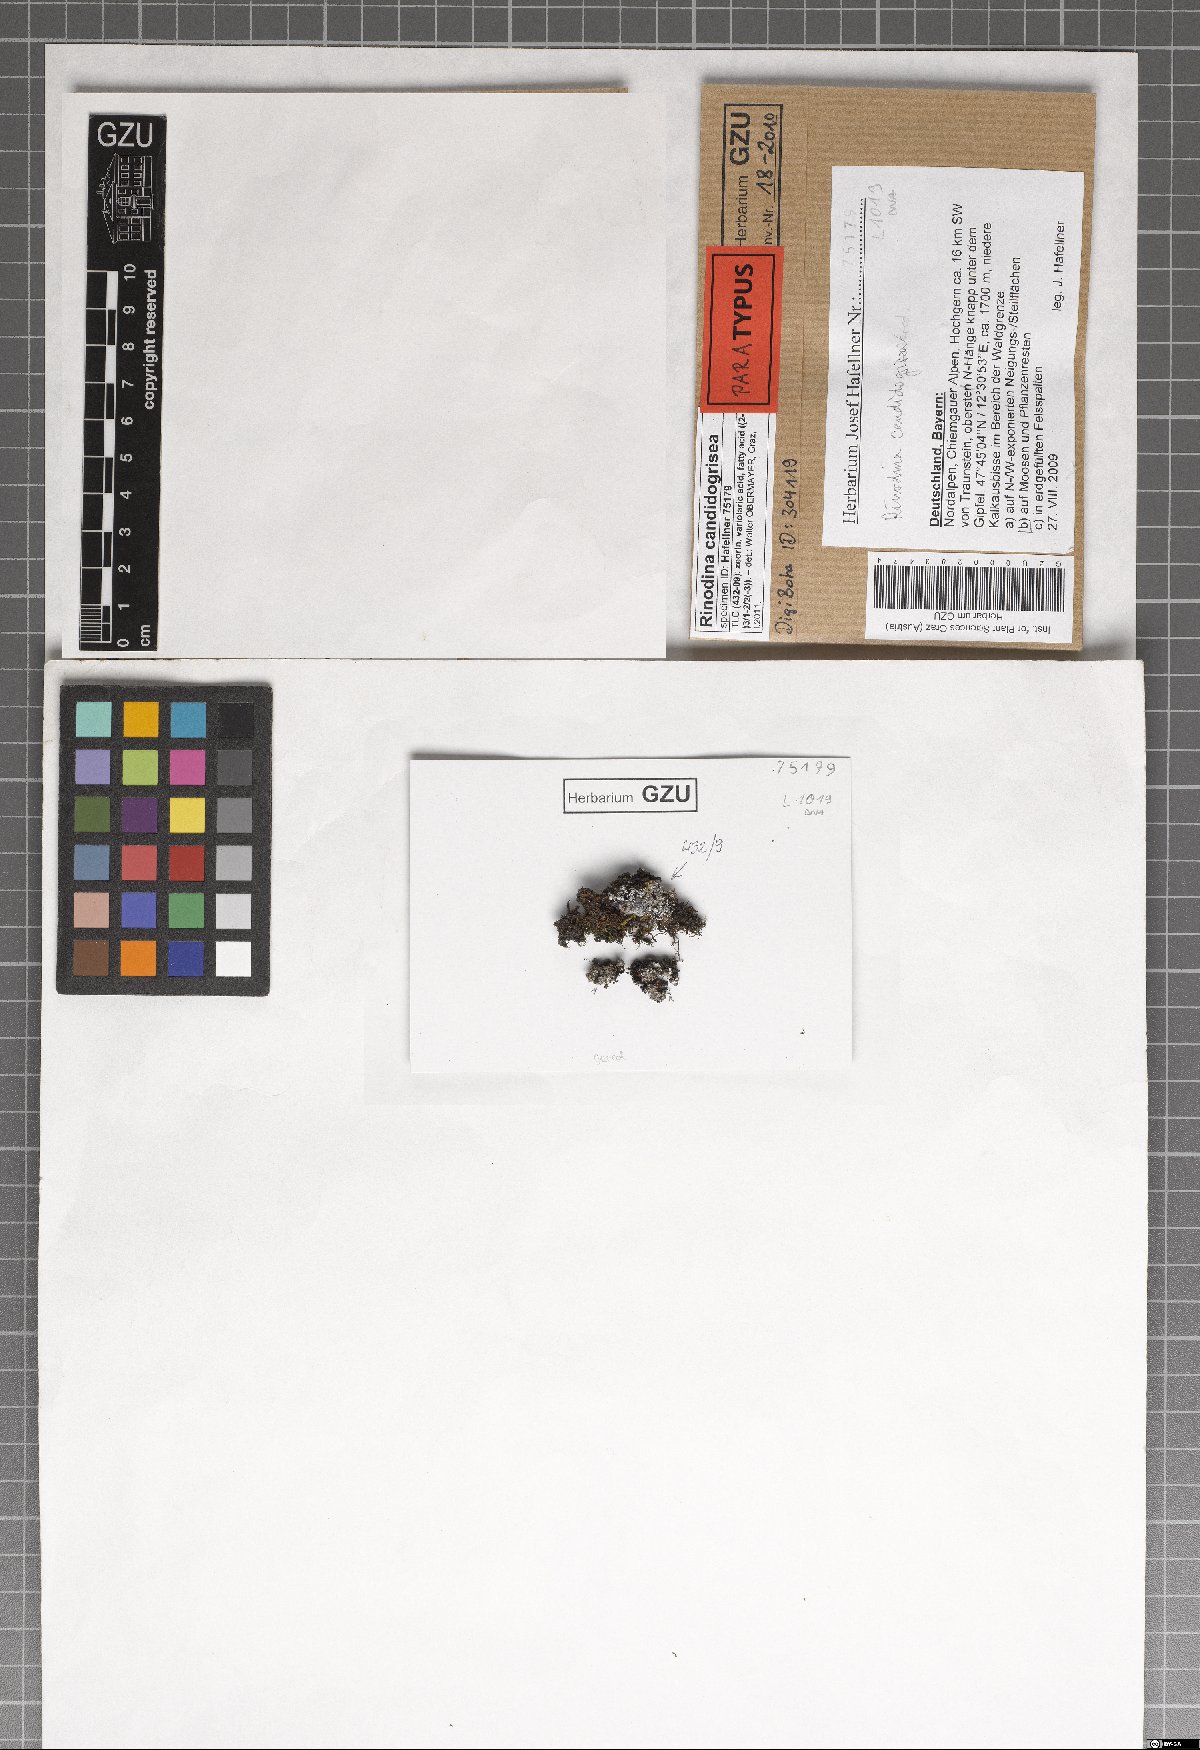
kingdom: Fungi
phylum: Ascomycota
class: Lecanoromycetes
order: Caliciales
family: Physciaceae
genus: Kudratovia
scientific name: Kudratovia candidogrisea
